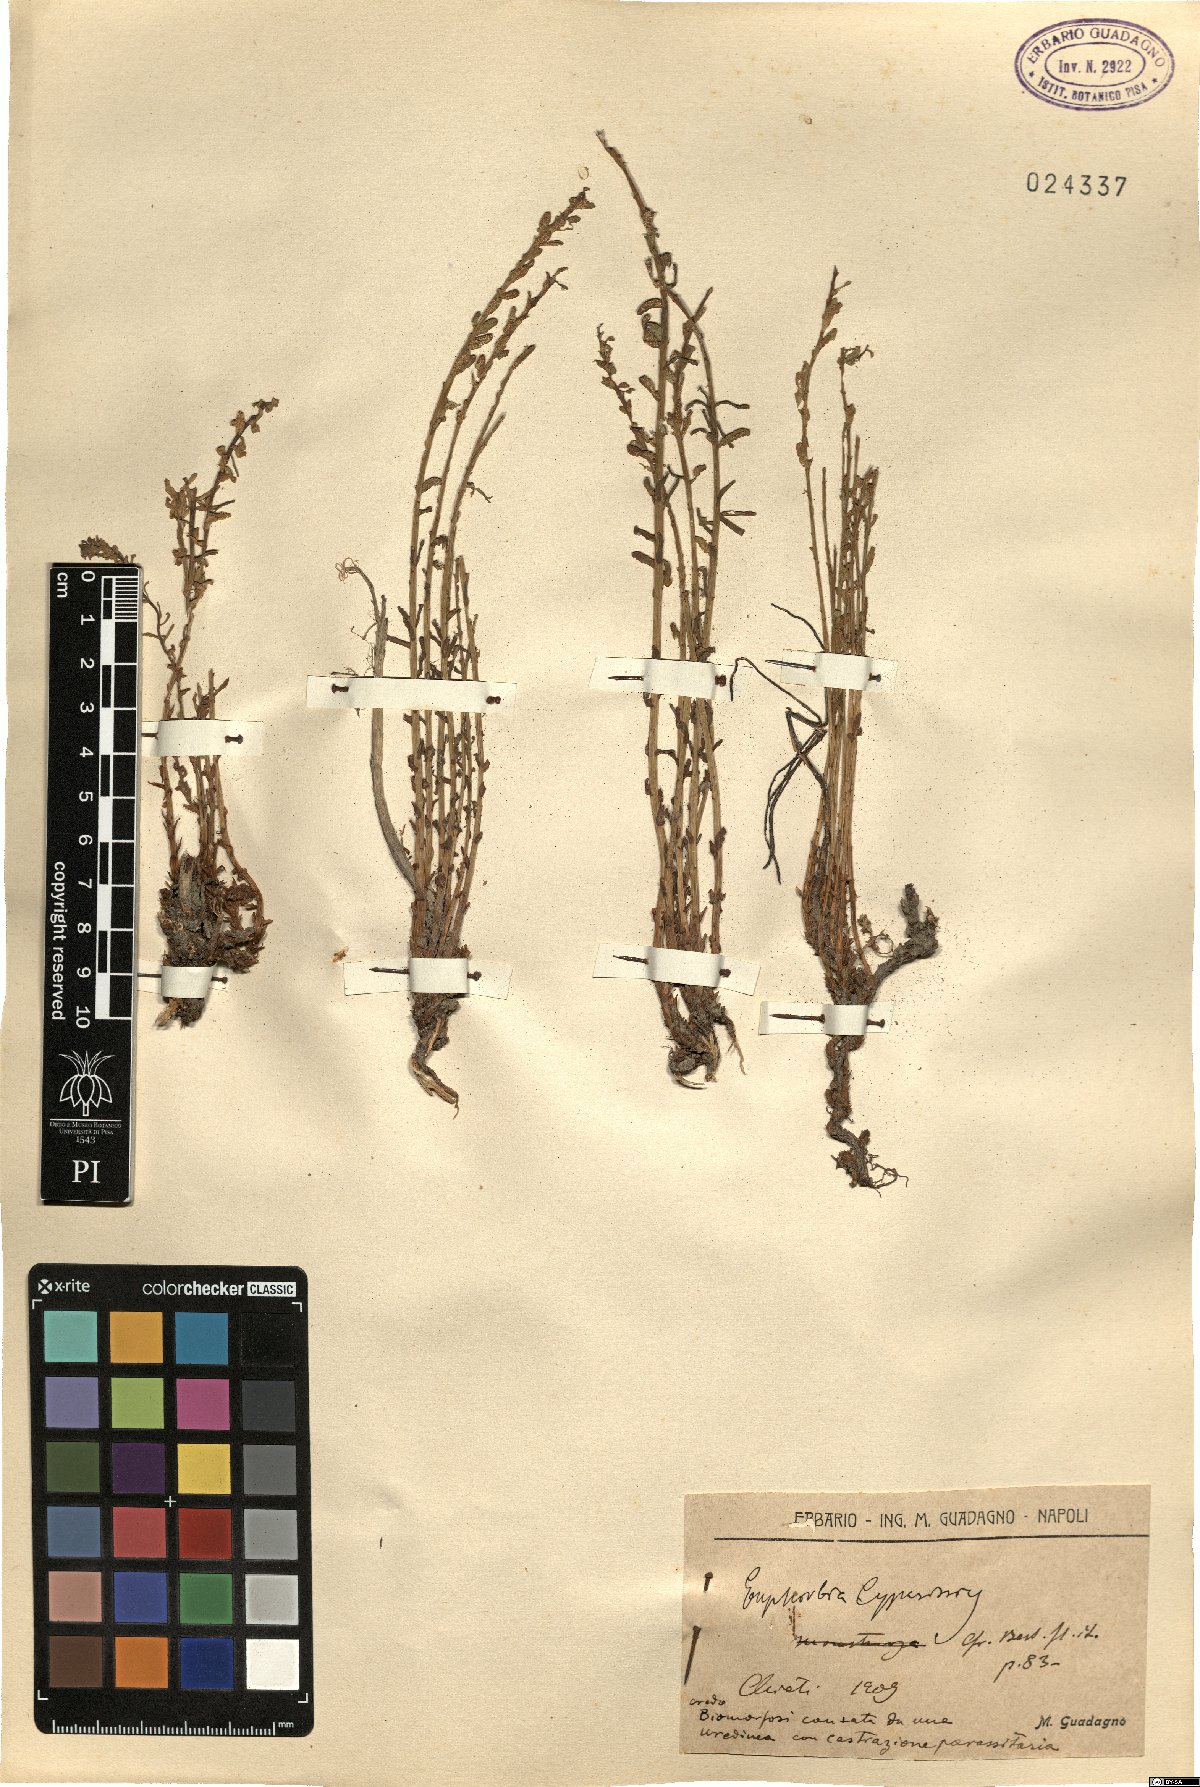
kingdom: Plantae
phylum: Tracheophyta
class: Magnoliopsida
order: Malpighiales
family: Euphorbiaceae
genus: Euphorbia
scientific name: Euphorbia cyparissias
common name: Cypress spurge
